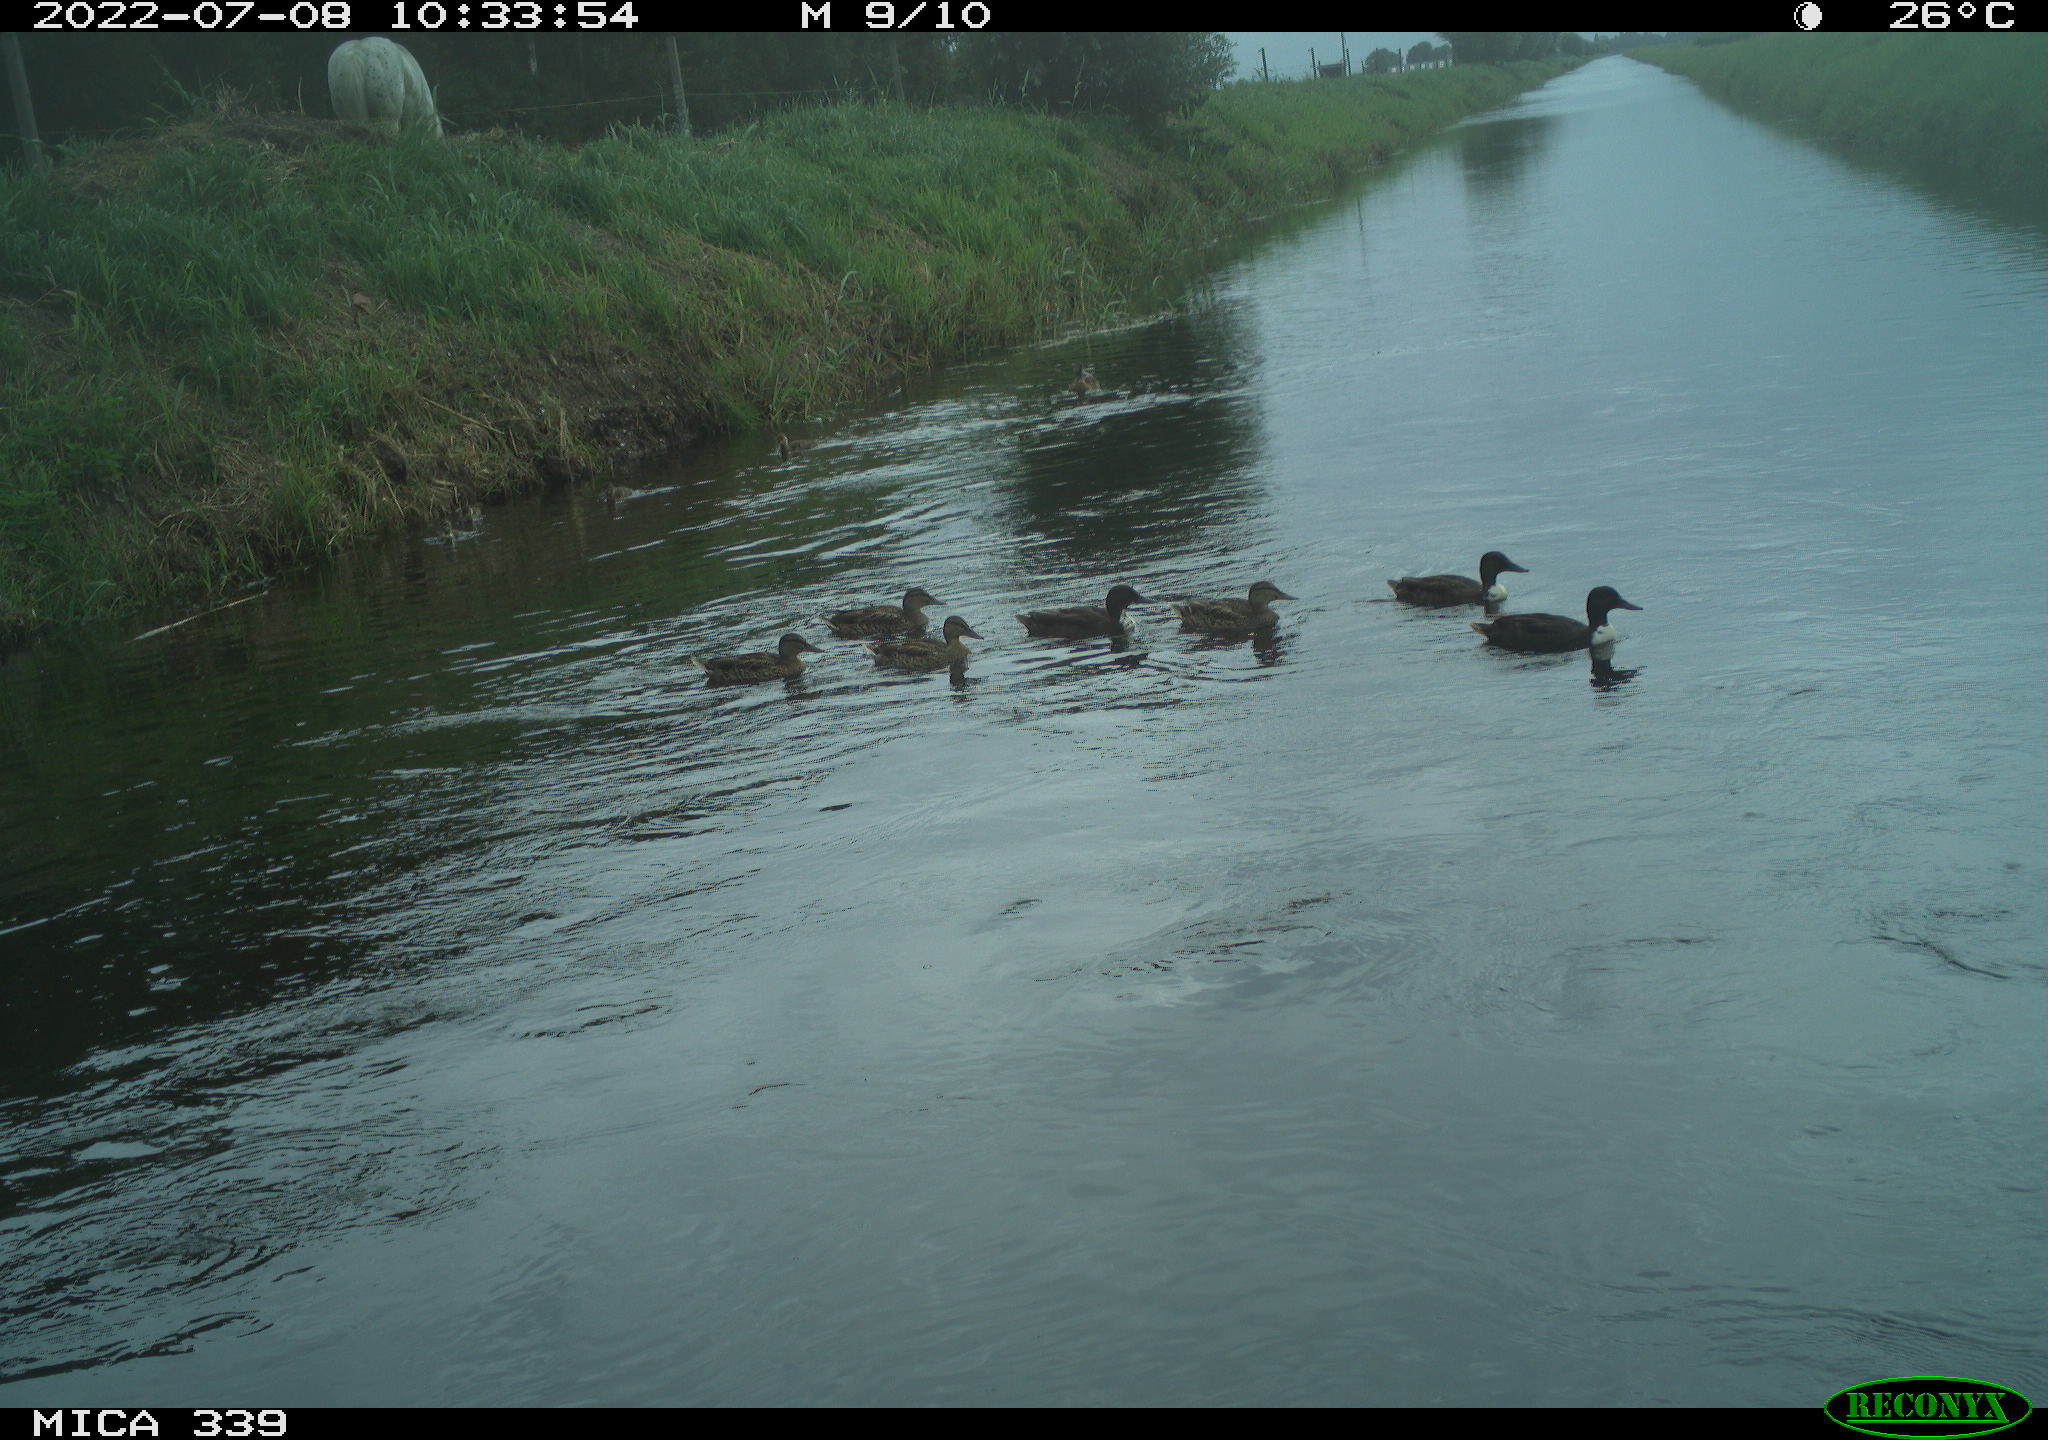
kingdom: Animalia
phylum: Chordata
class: Aves
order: Anseriformes
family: Anatidae
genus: Anas
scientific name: Anas platyrhynchos
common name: Mallard
